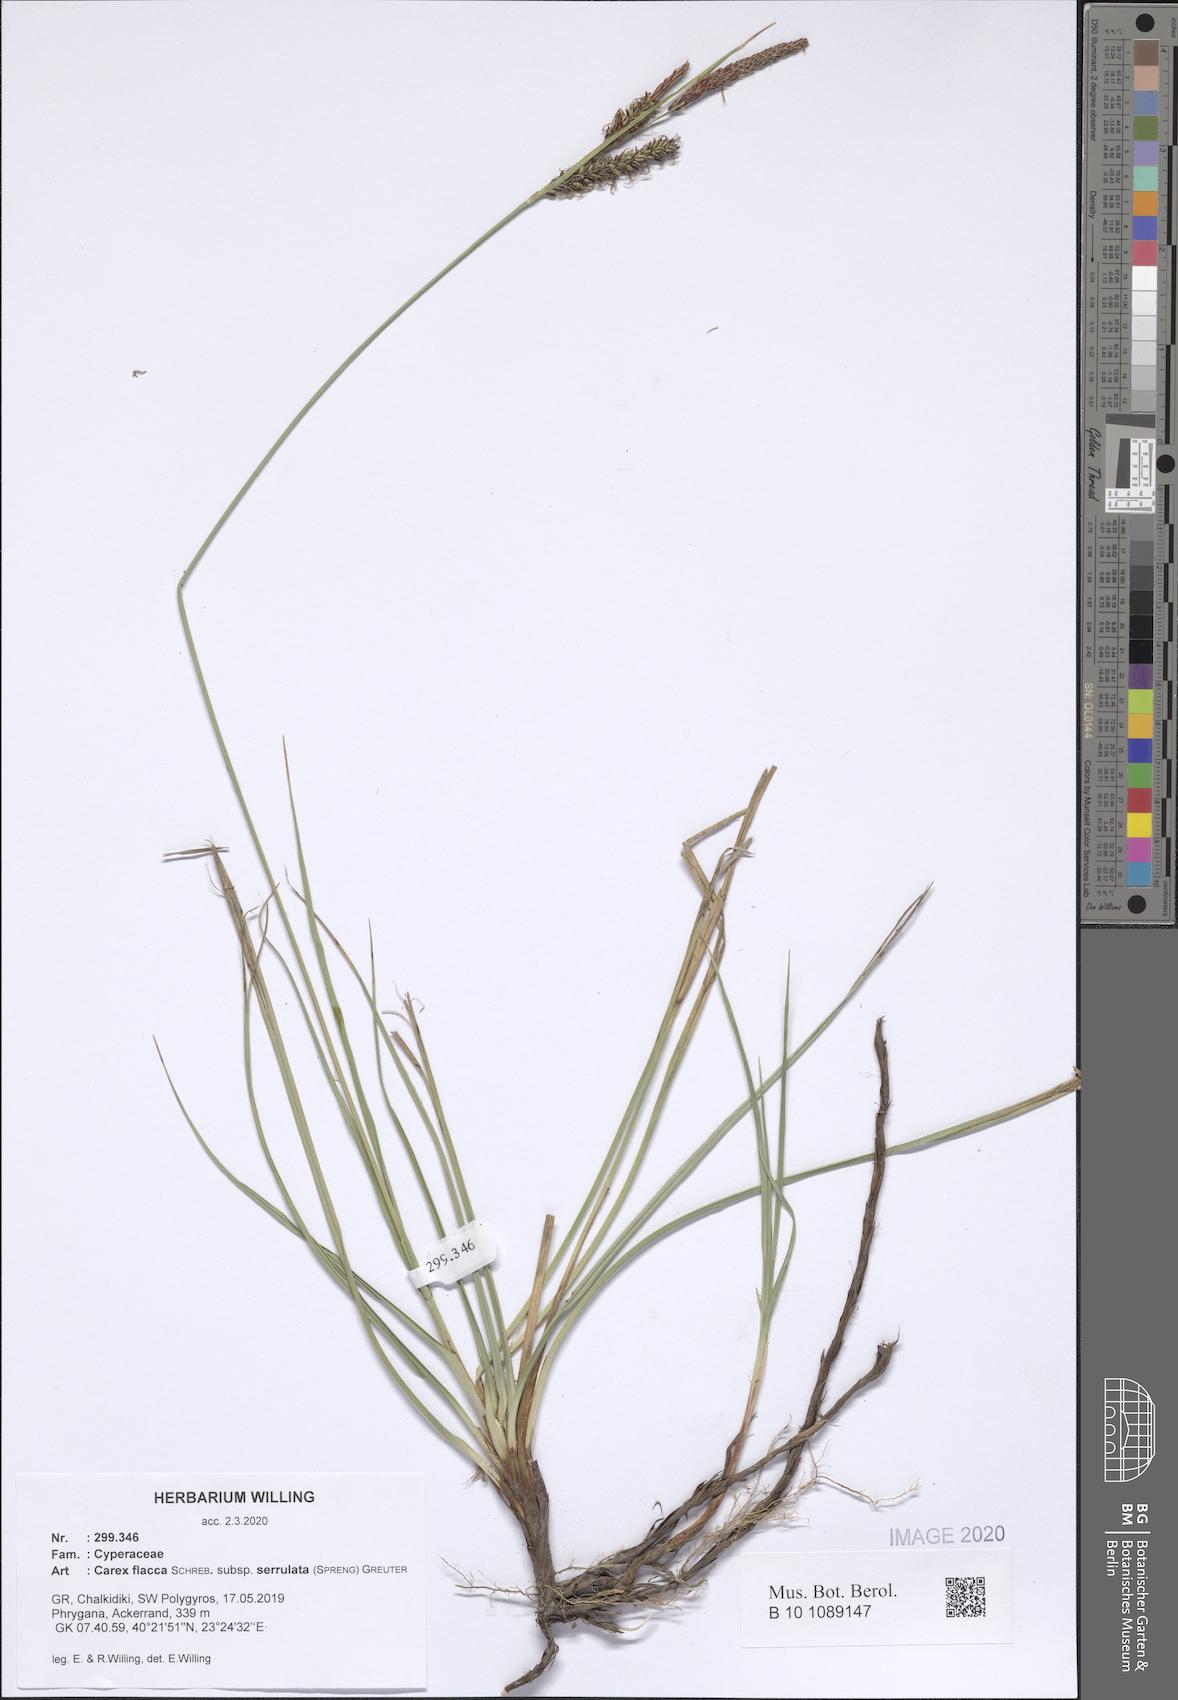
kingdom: Plantae
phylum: Tracheophyta
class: Liliopsida
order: Poales
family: Cyperaceae
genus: Carex
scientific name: Carex flacca
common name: Glaucous sedge
